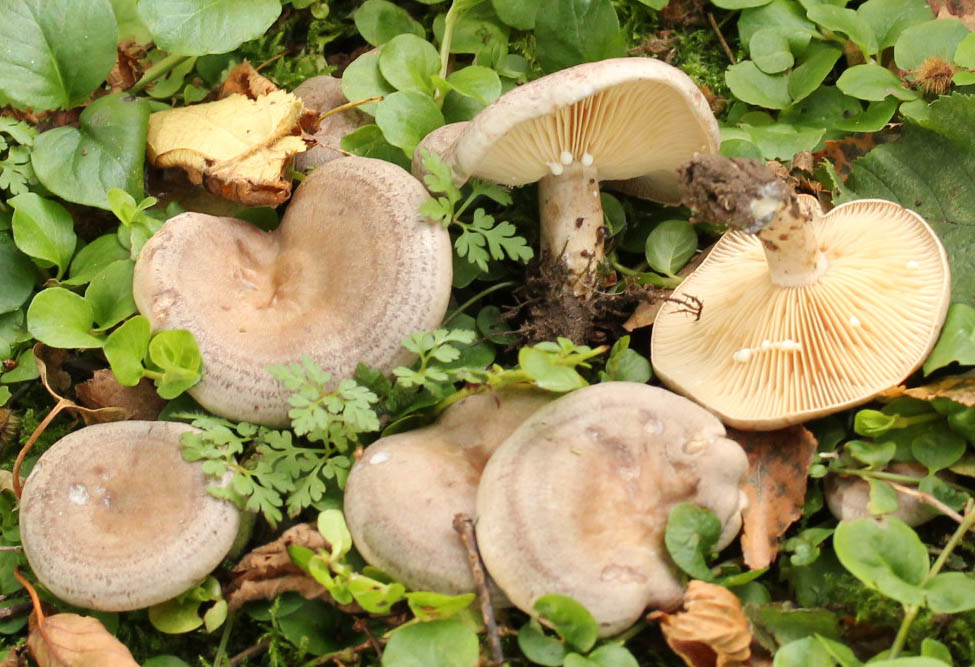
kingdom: Fungi
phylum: Basidiomycota
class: Agaricomycetes
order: Russulales
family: Russulaceae
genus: Lactarius
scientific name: Lactarius pyrogalus
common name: hassel-mælkehat
